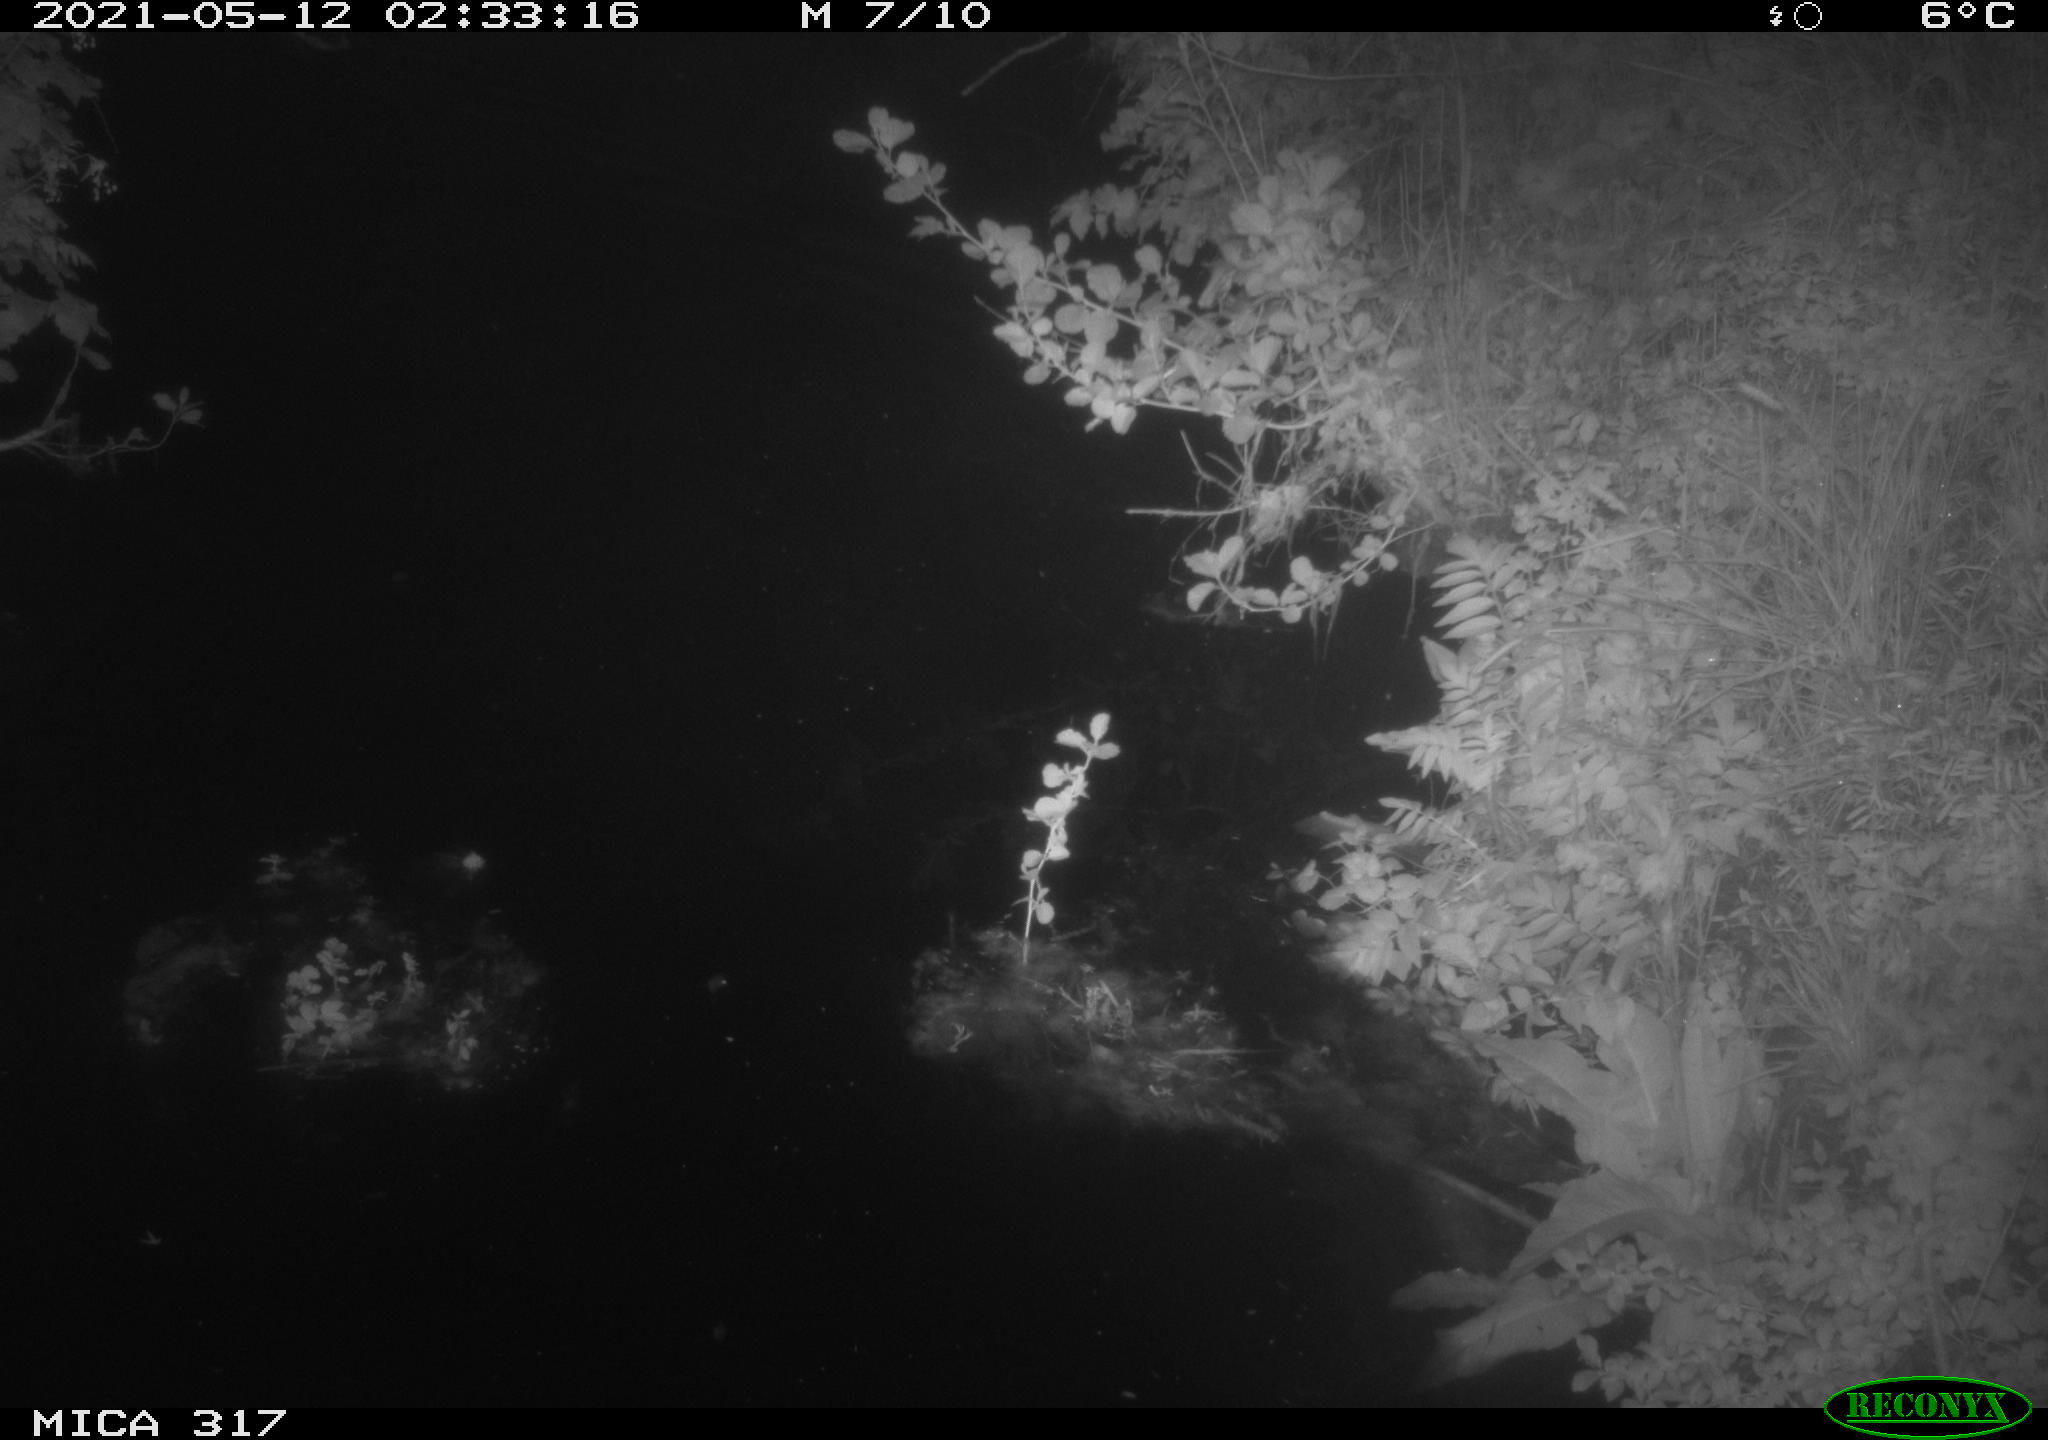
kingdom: Animalia
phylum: Chordata
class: Aves
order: Anseriformes
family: Anatidae
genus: Anas
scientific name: Anas
